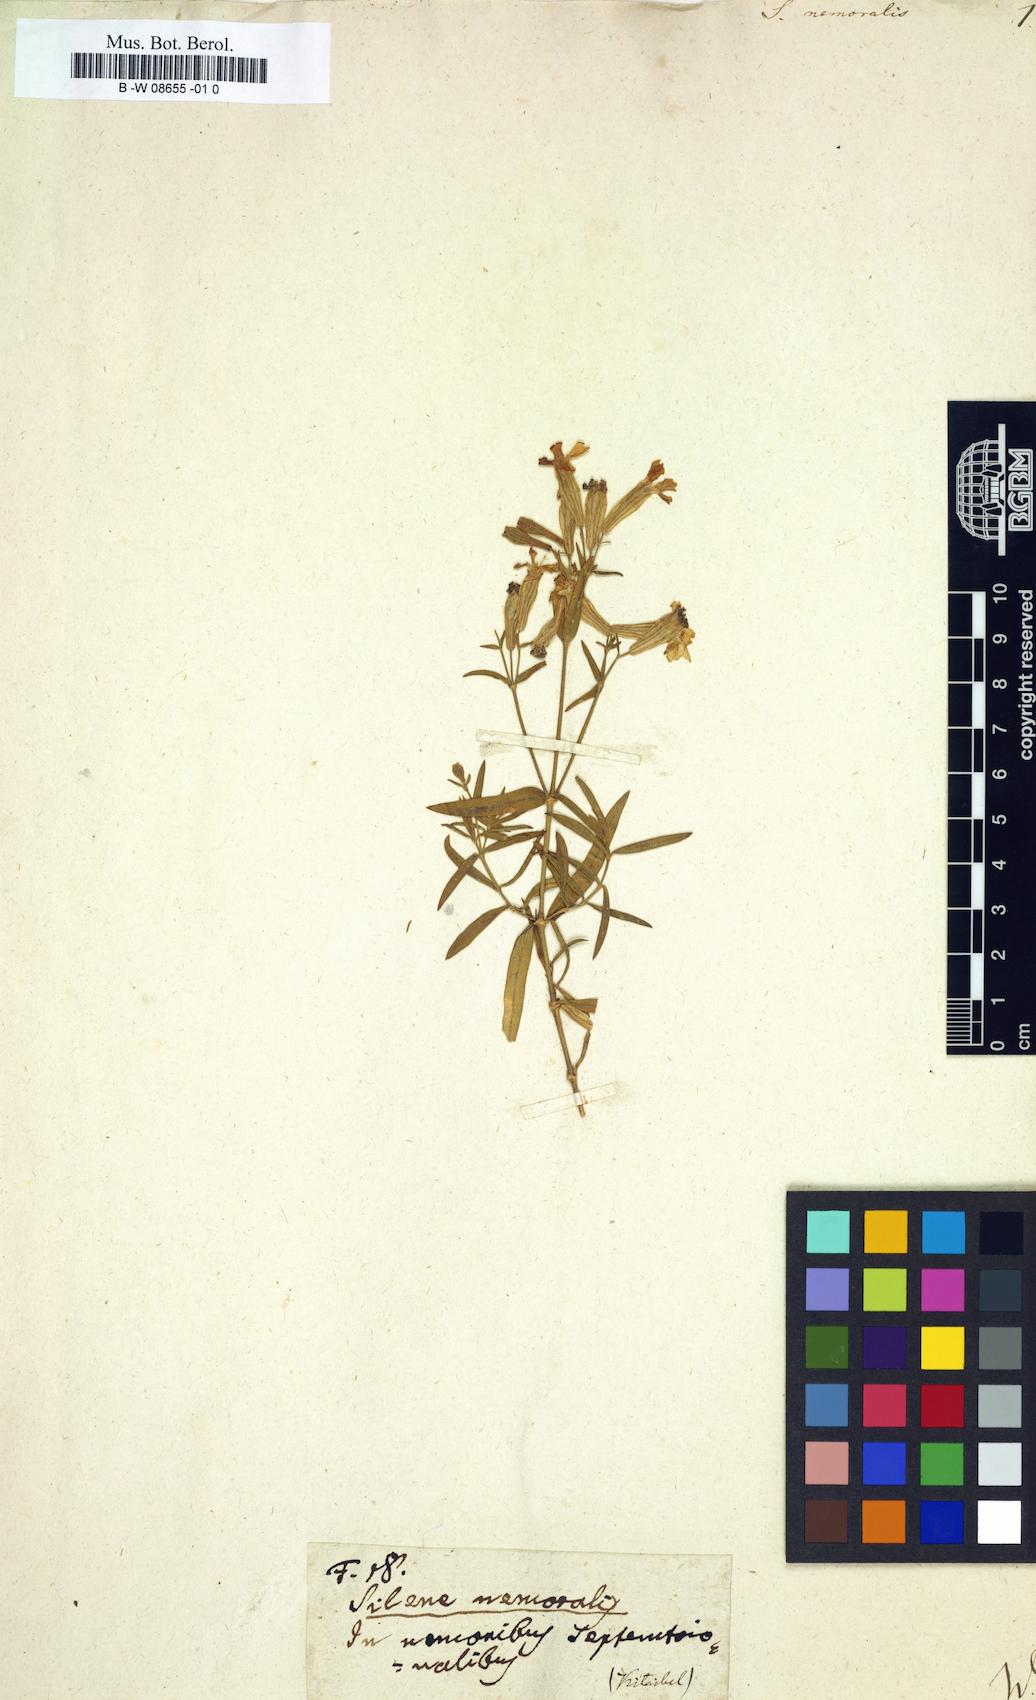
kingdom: Plantae
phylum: Tracheophyta
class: Magnoliopsida
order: Caryophyllales
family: Caryophyllaceae
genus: Silene
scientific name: Silene nemoralis
